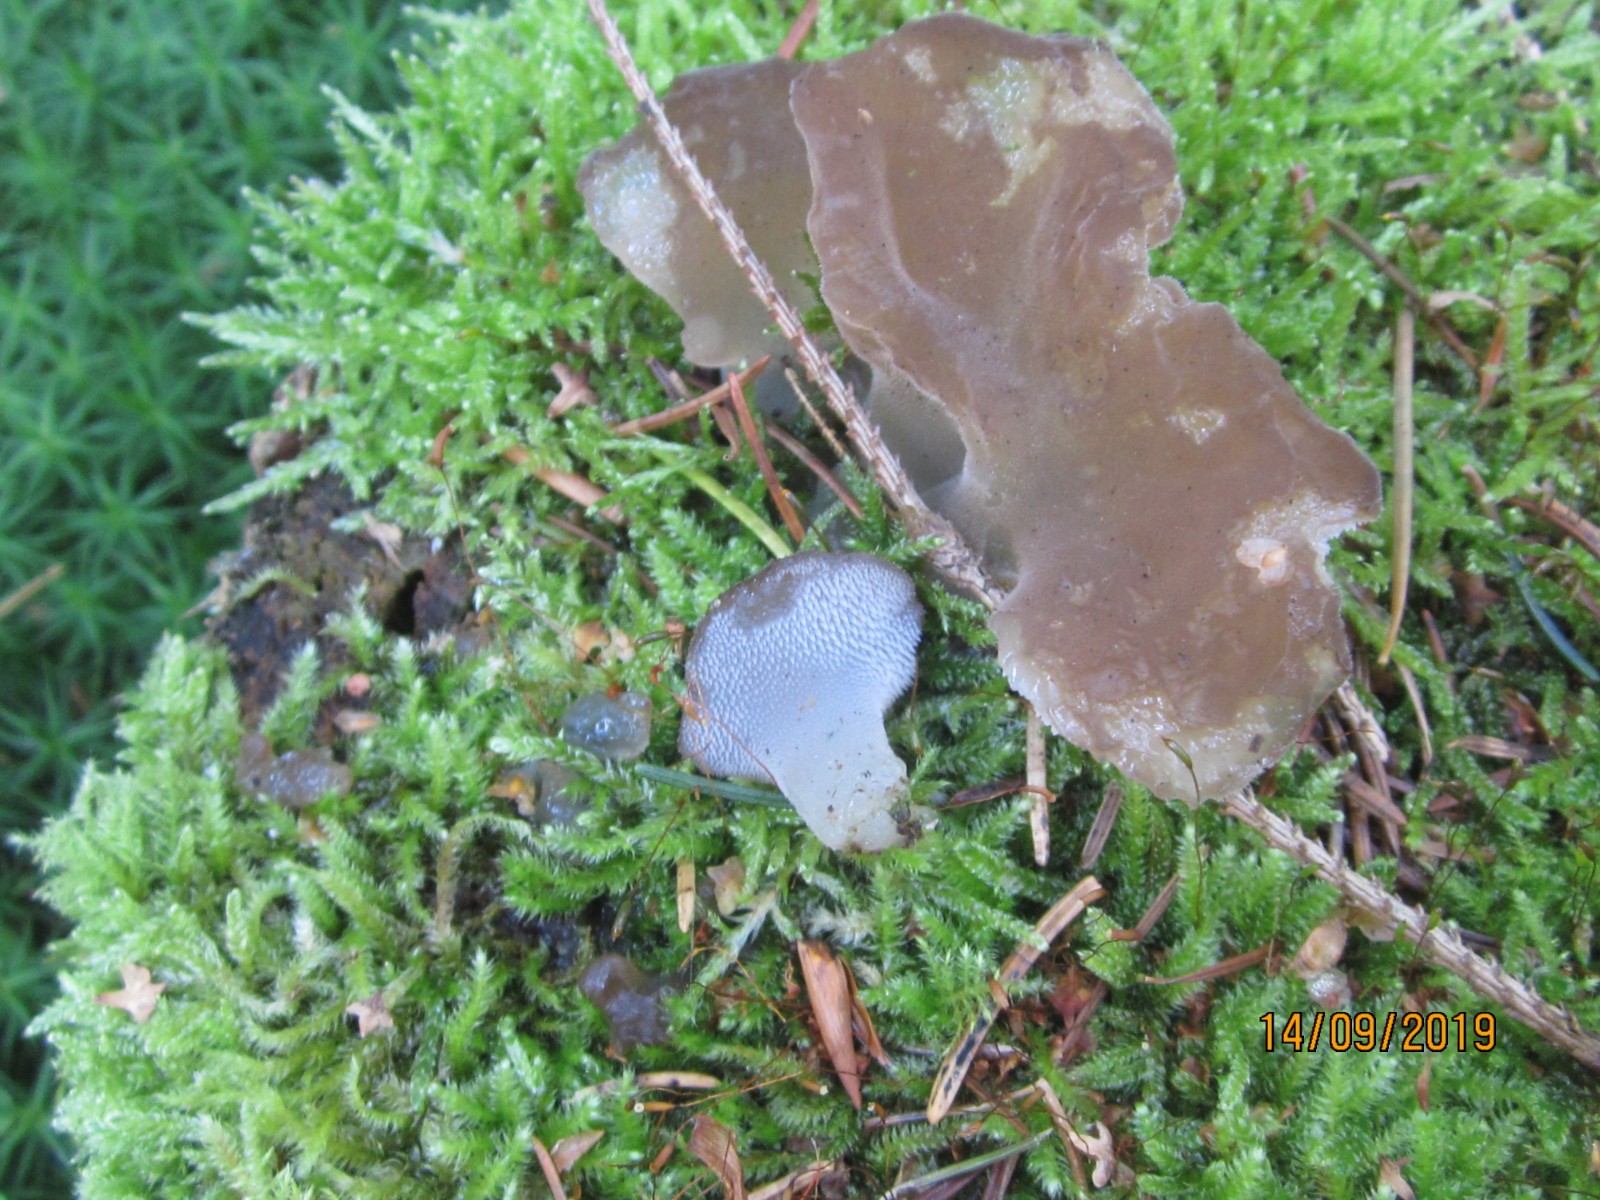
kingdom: Fungi
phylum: Basidiomycota
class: Agaricomycetes
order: Auriculariales
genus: Pseudohydnum
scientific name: Pseudohydnum gelatinosum
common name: bævretand
